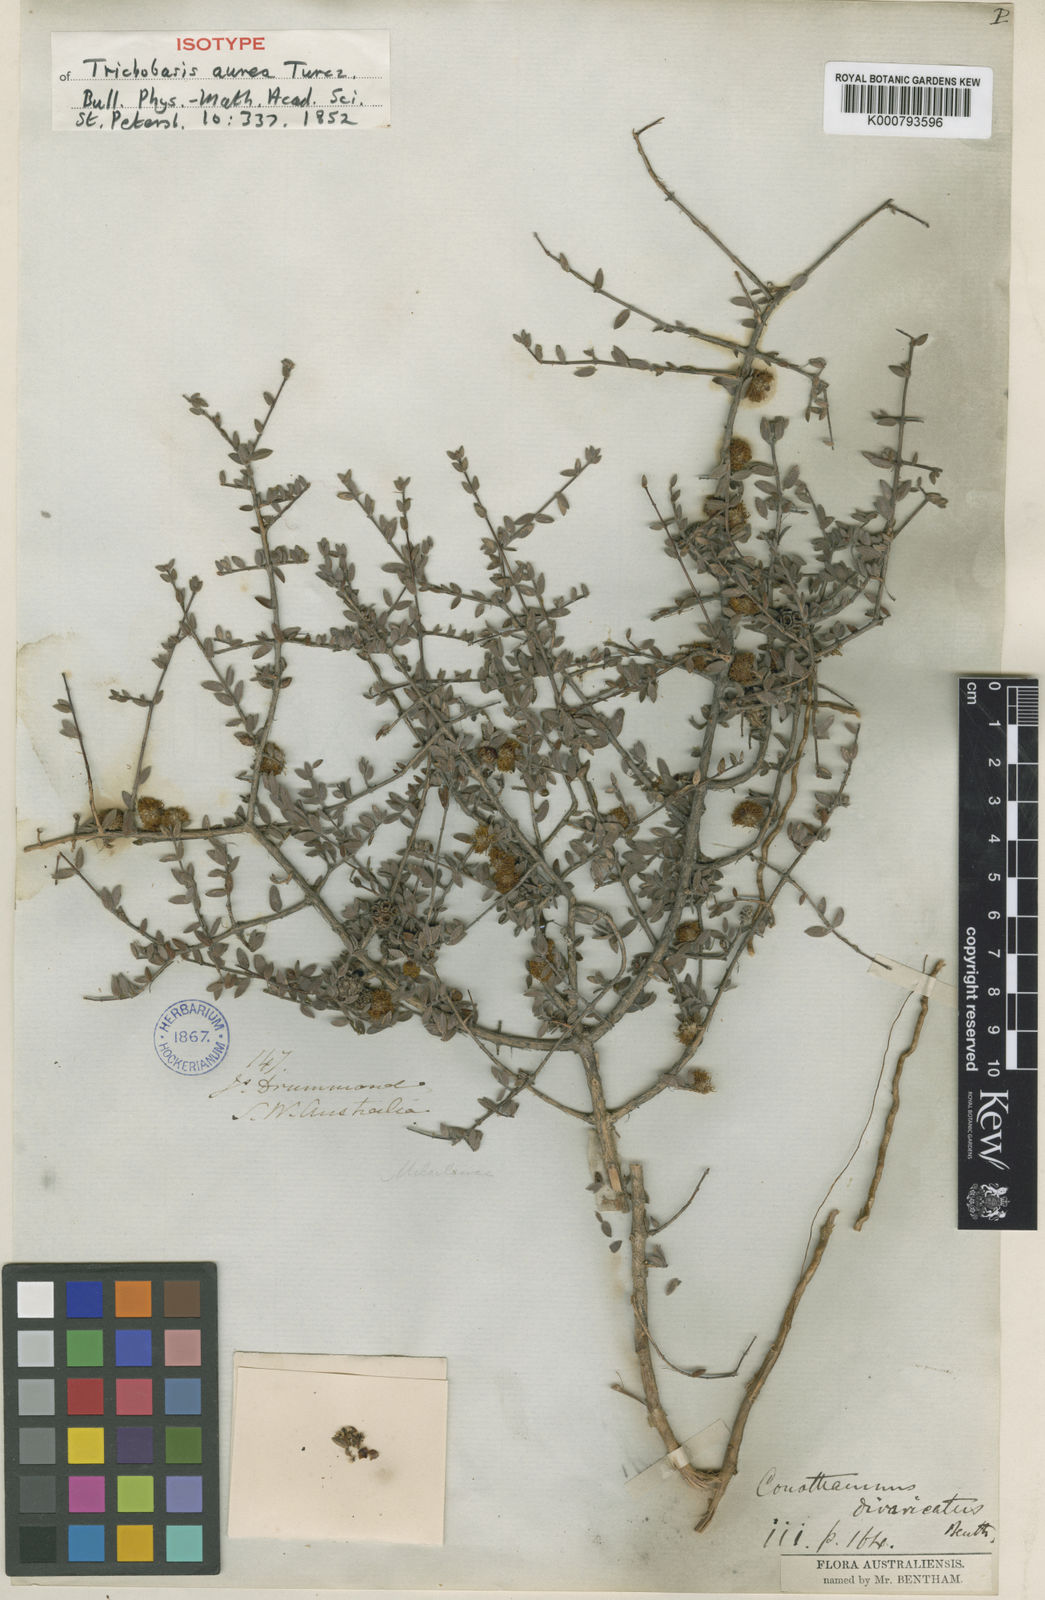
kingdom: Plantae
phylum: Tracheophyta
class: Magnoliopsida
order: Myrtales
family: Myrtaceae
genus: Melaleuca
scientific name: Melaleuca aurea
